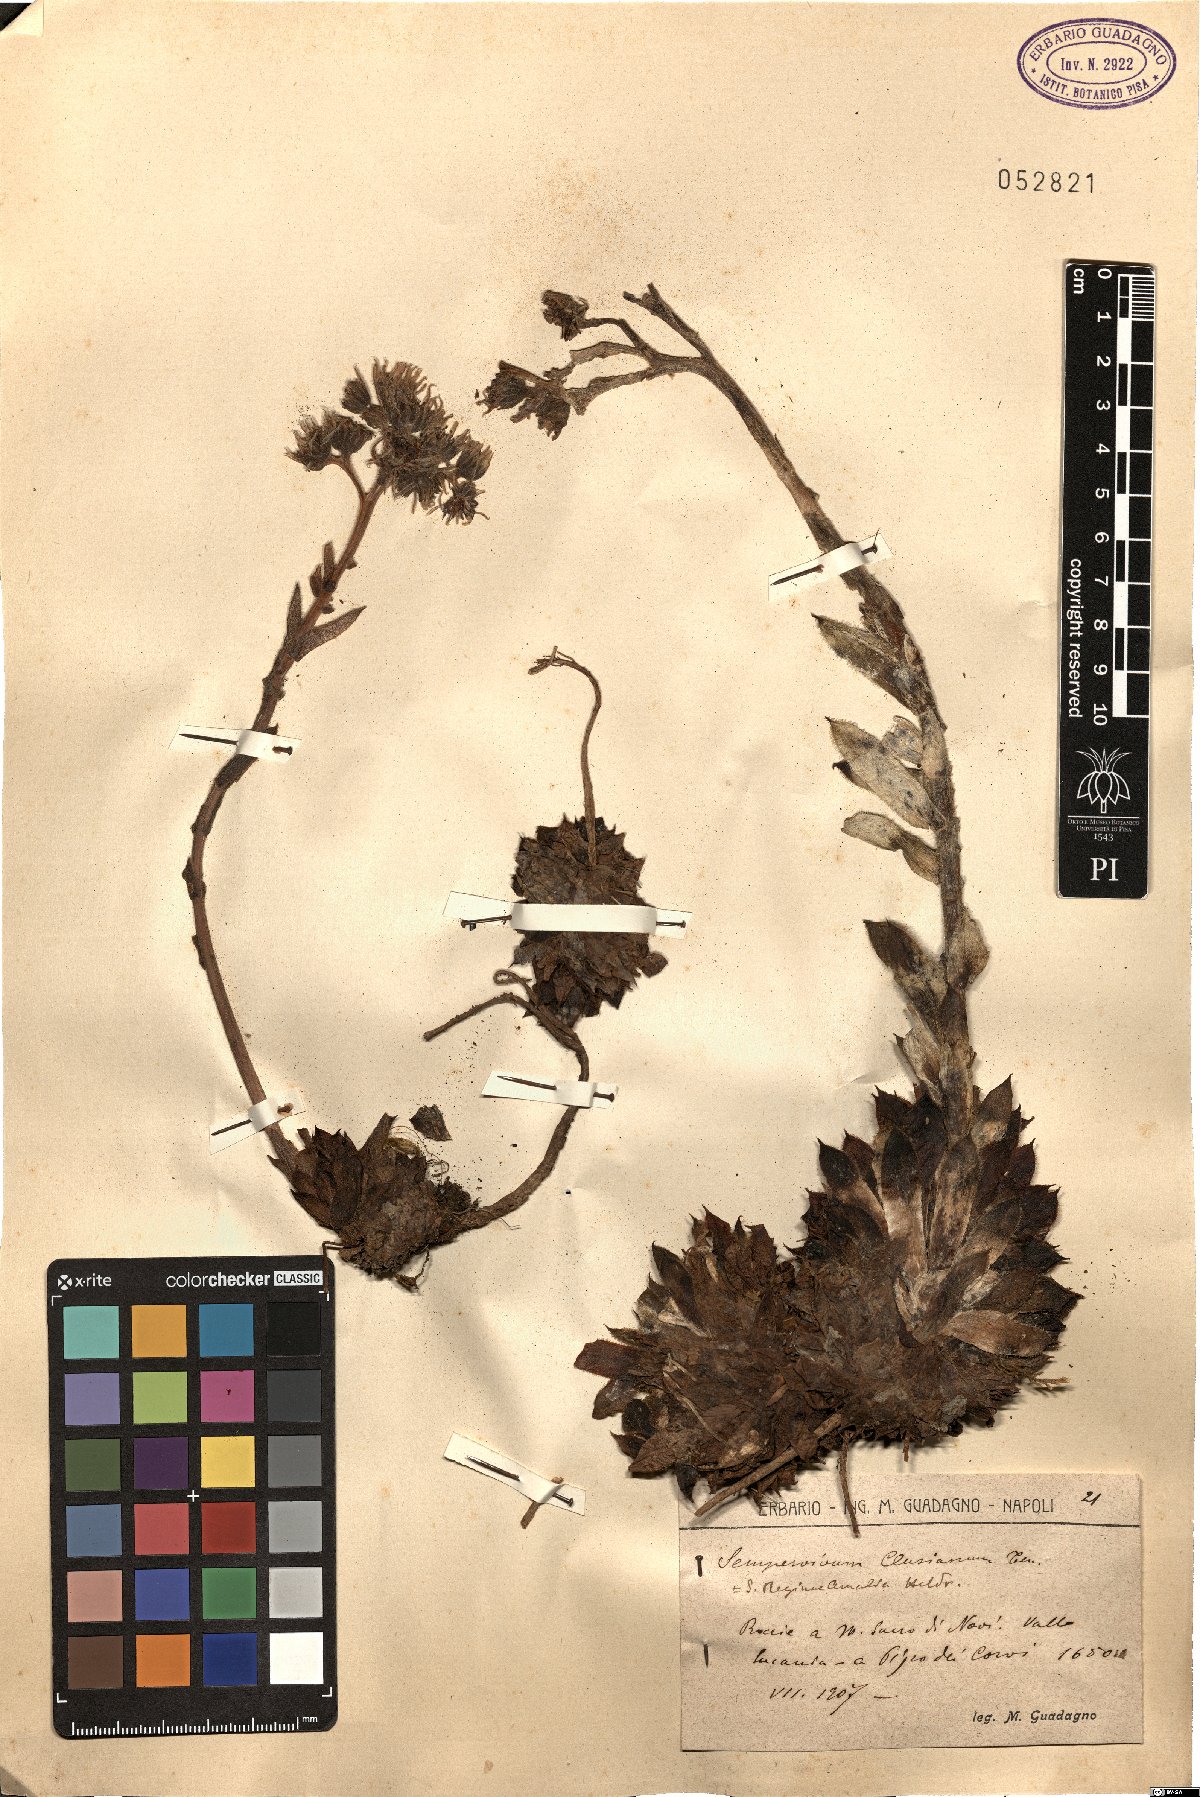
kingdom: Plantae
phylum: Tracheophyta
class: Magnoliopsida
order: Saxifragales
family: Crassulaceae
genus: Sempervivum
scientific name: Sempervivum tectorum
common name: House-leek
